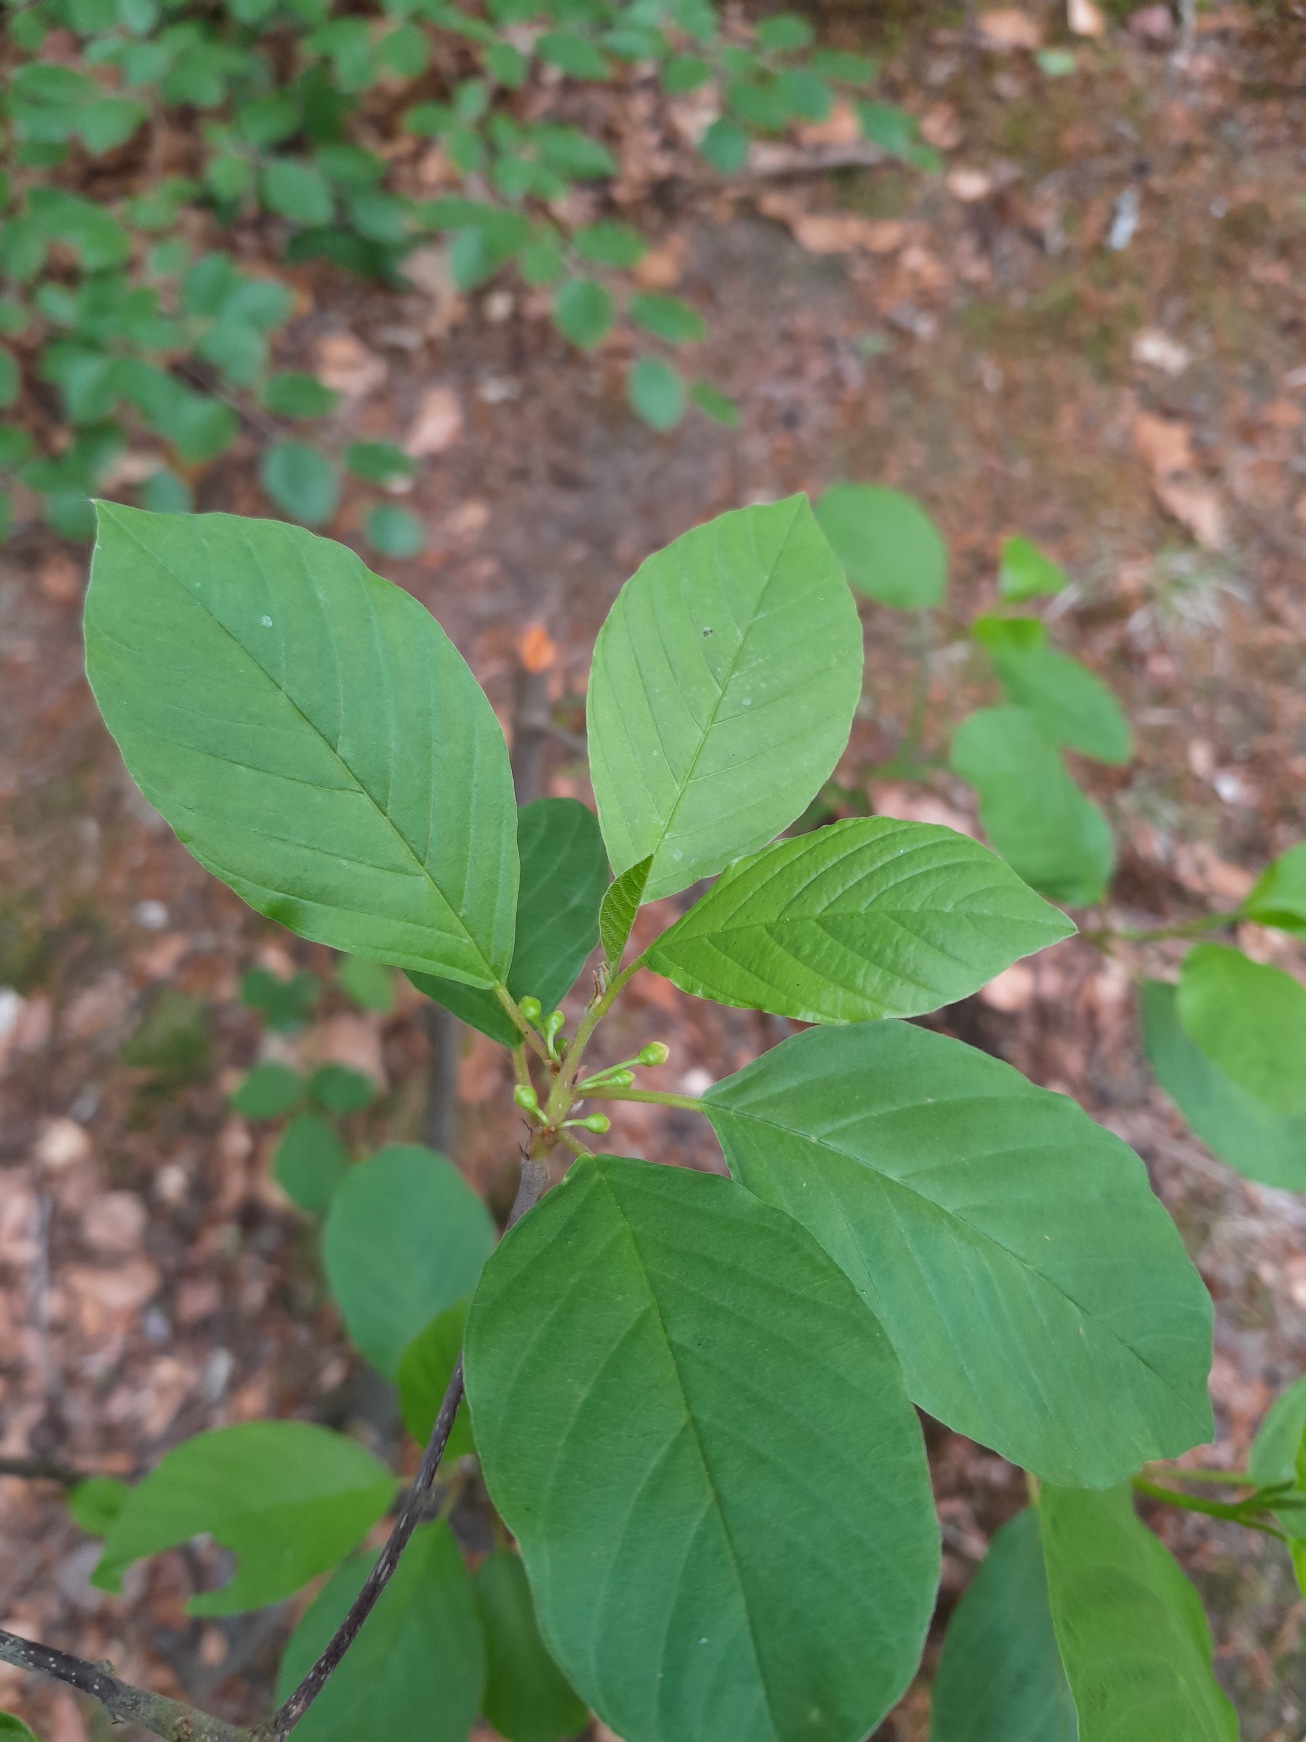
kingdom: Plantae
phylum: Tracheophyta
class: Magnoliopsida
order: Rosales
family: Rhamnaceae
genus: Frangula
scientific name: Frangula alnus
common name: Tørst
